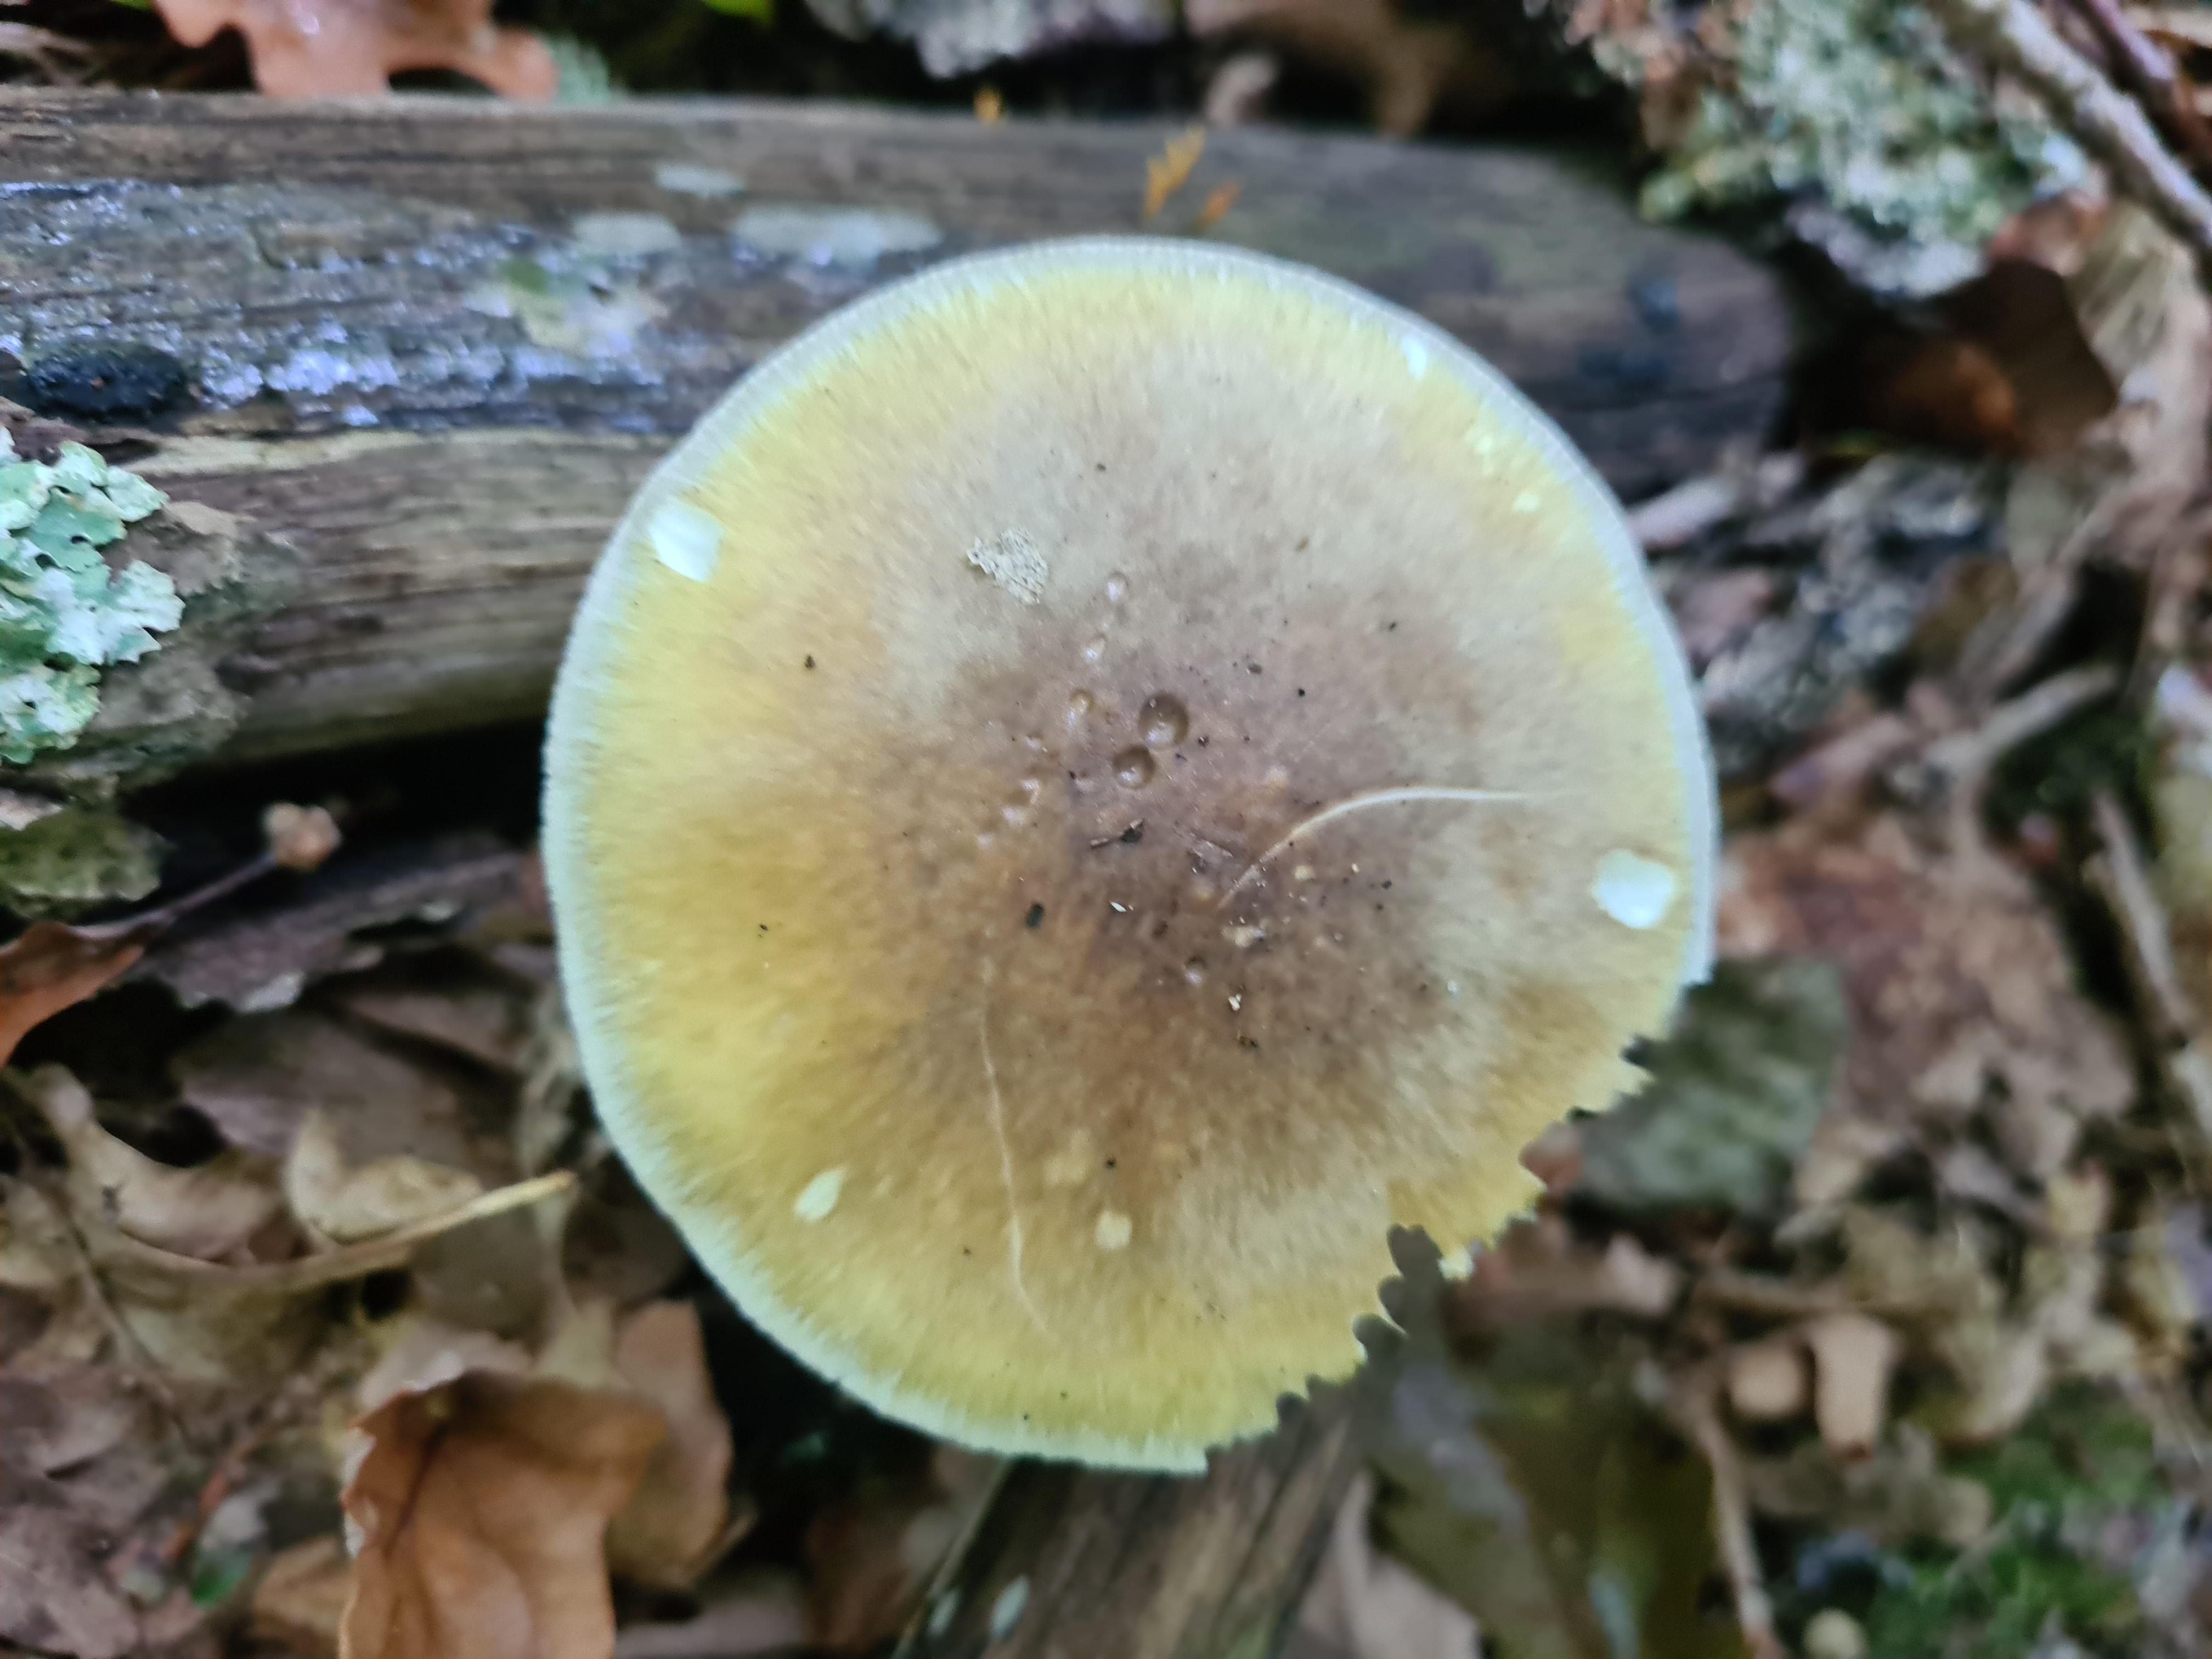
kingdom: Fungi
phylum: Basidiomycota
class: Agaricomycetes
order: Agaricales
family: Amanitaceae
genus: Amanita
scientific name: Amanita phalloides
